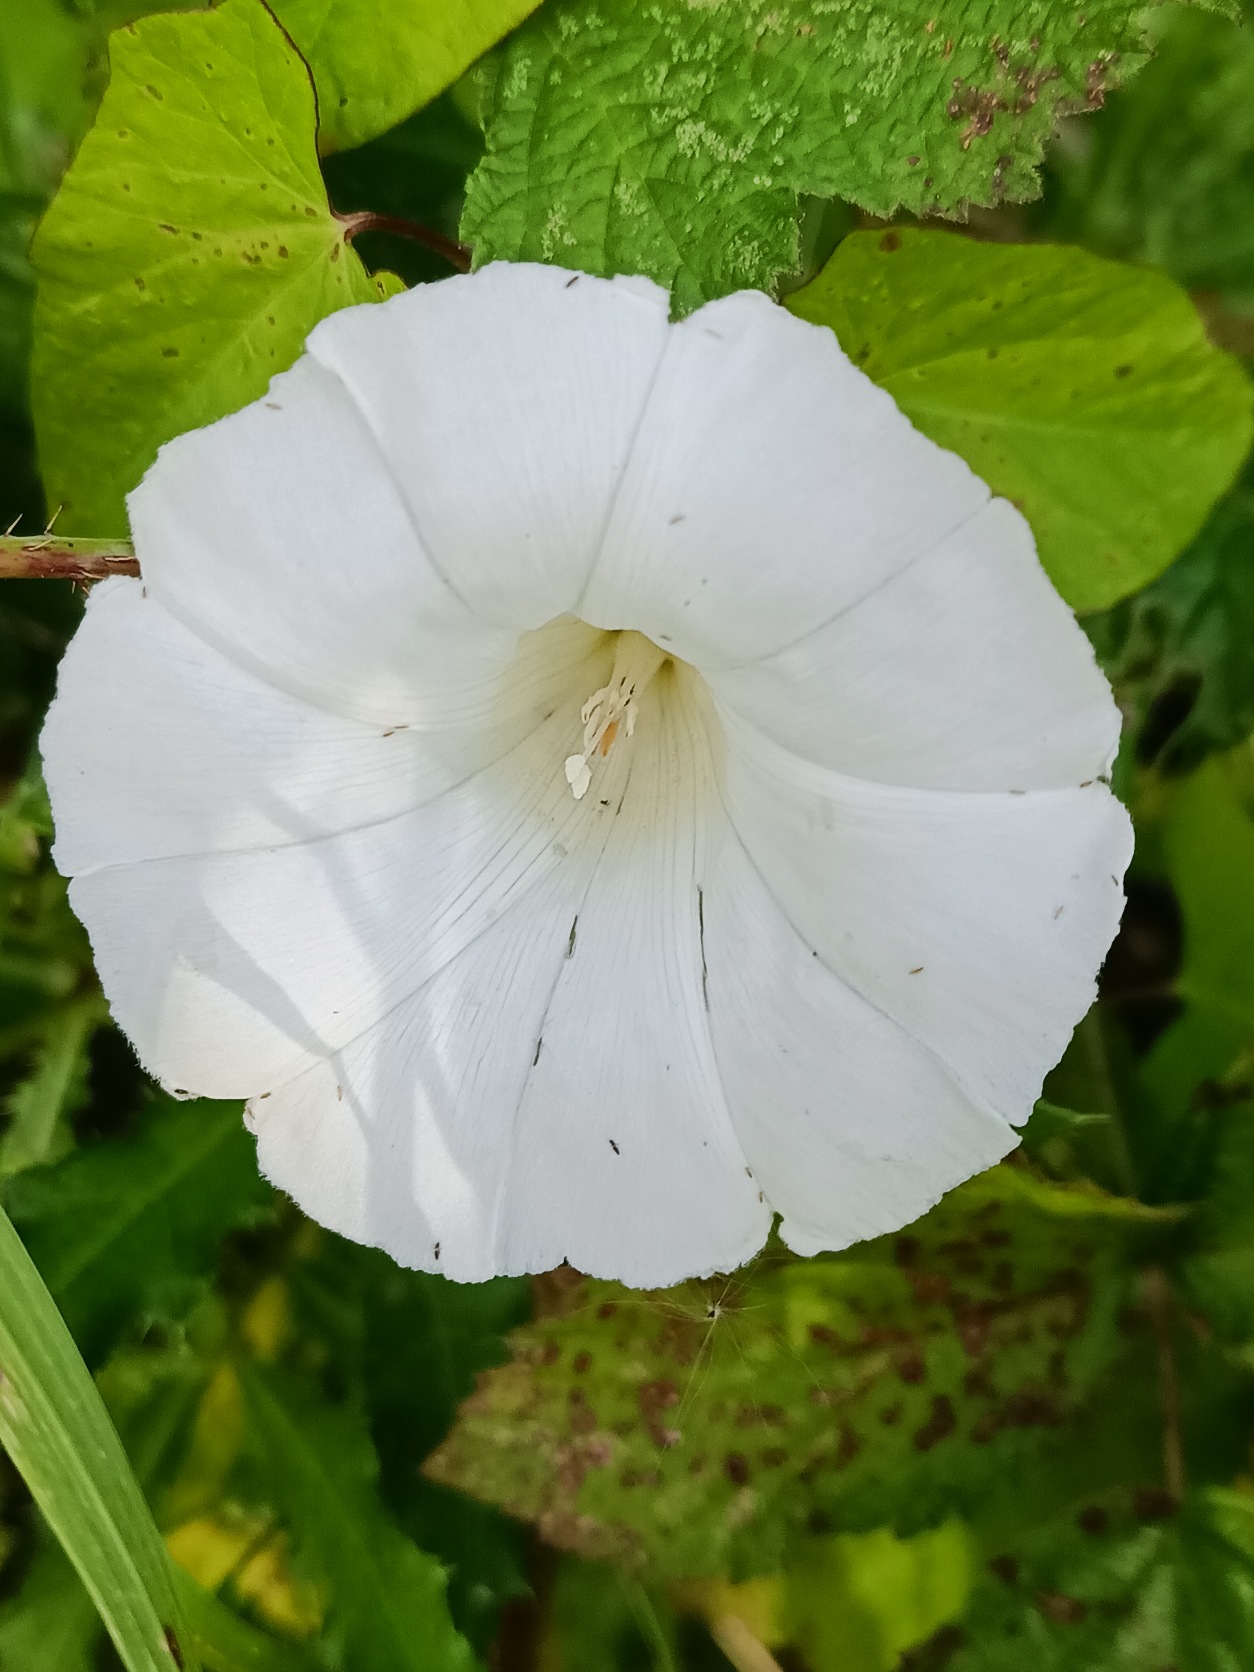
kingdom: Plantae
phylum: Tracheophyta
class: Magnoliopsida
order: Solanales
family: Convolvulaceae
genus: Calystegia
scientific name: Calystegia sepium
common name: Gærde-snerle
